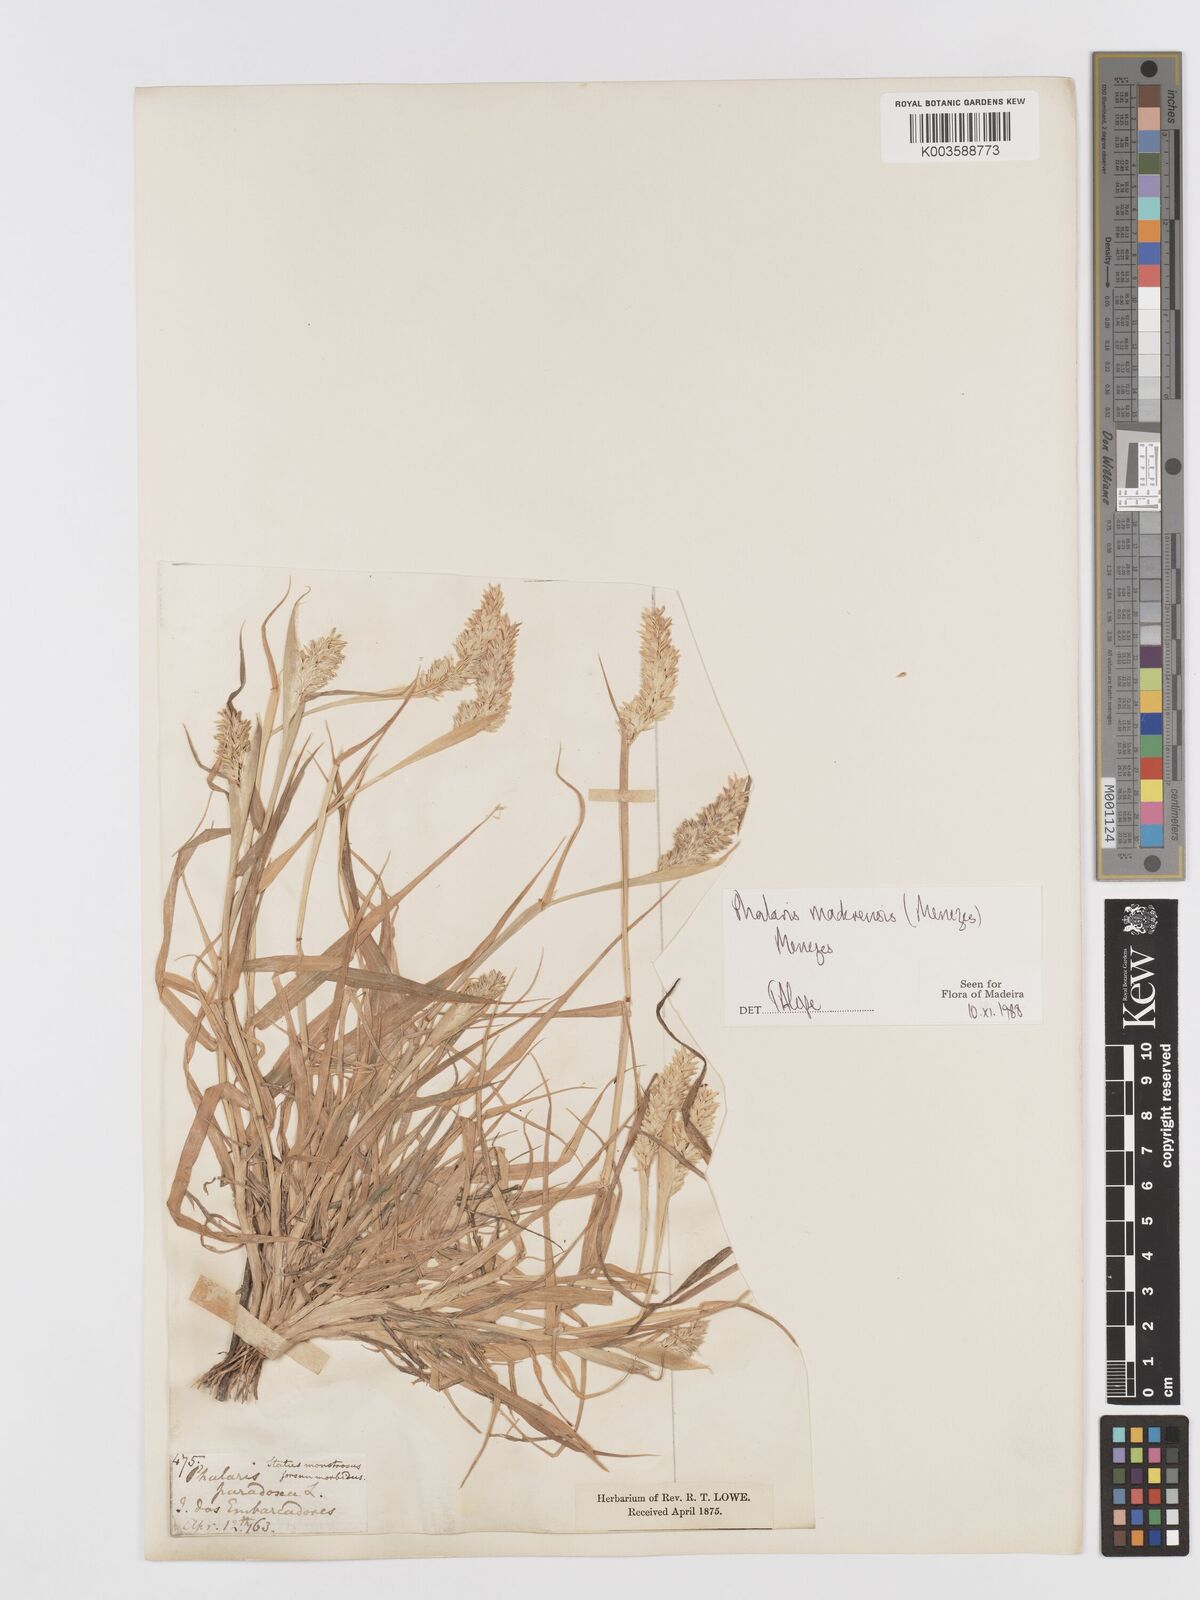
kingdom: Plantae
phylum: Tracheophyta
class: Liliopsida
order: Poales
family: Poaceae
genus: Phalaris
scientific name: Phalaris maderensis
